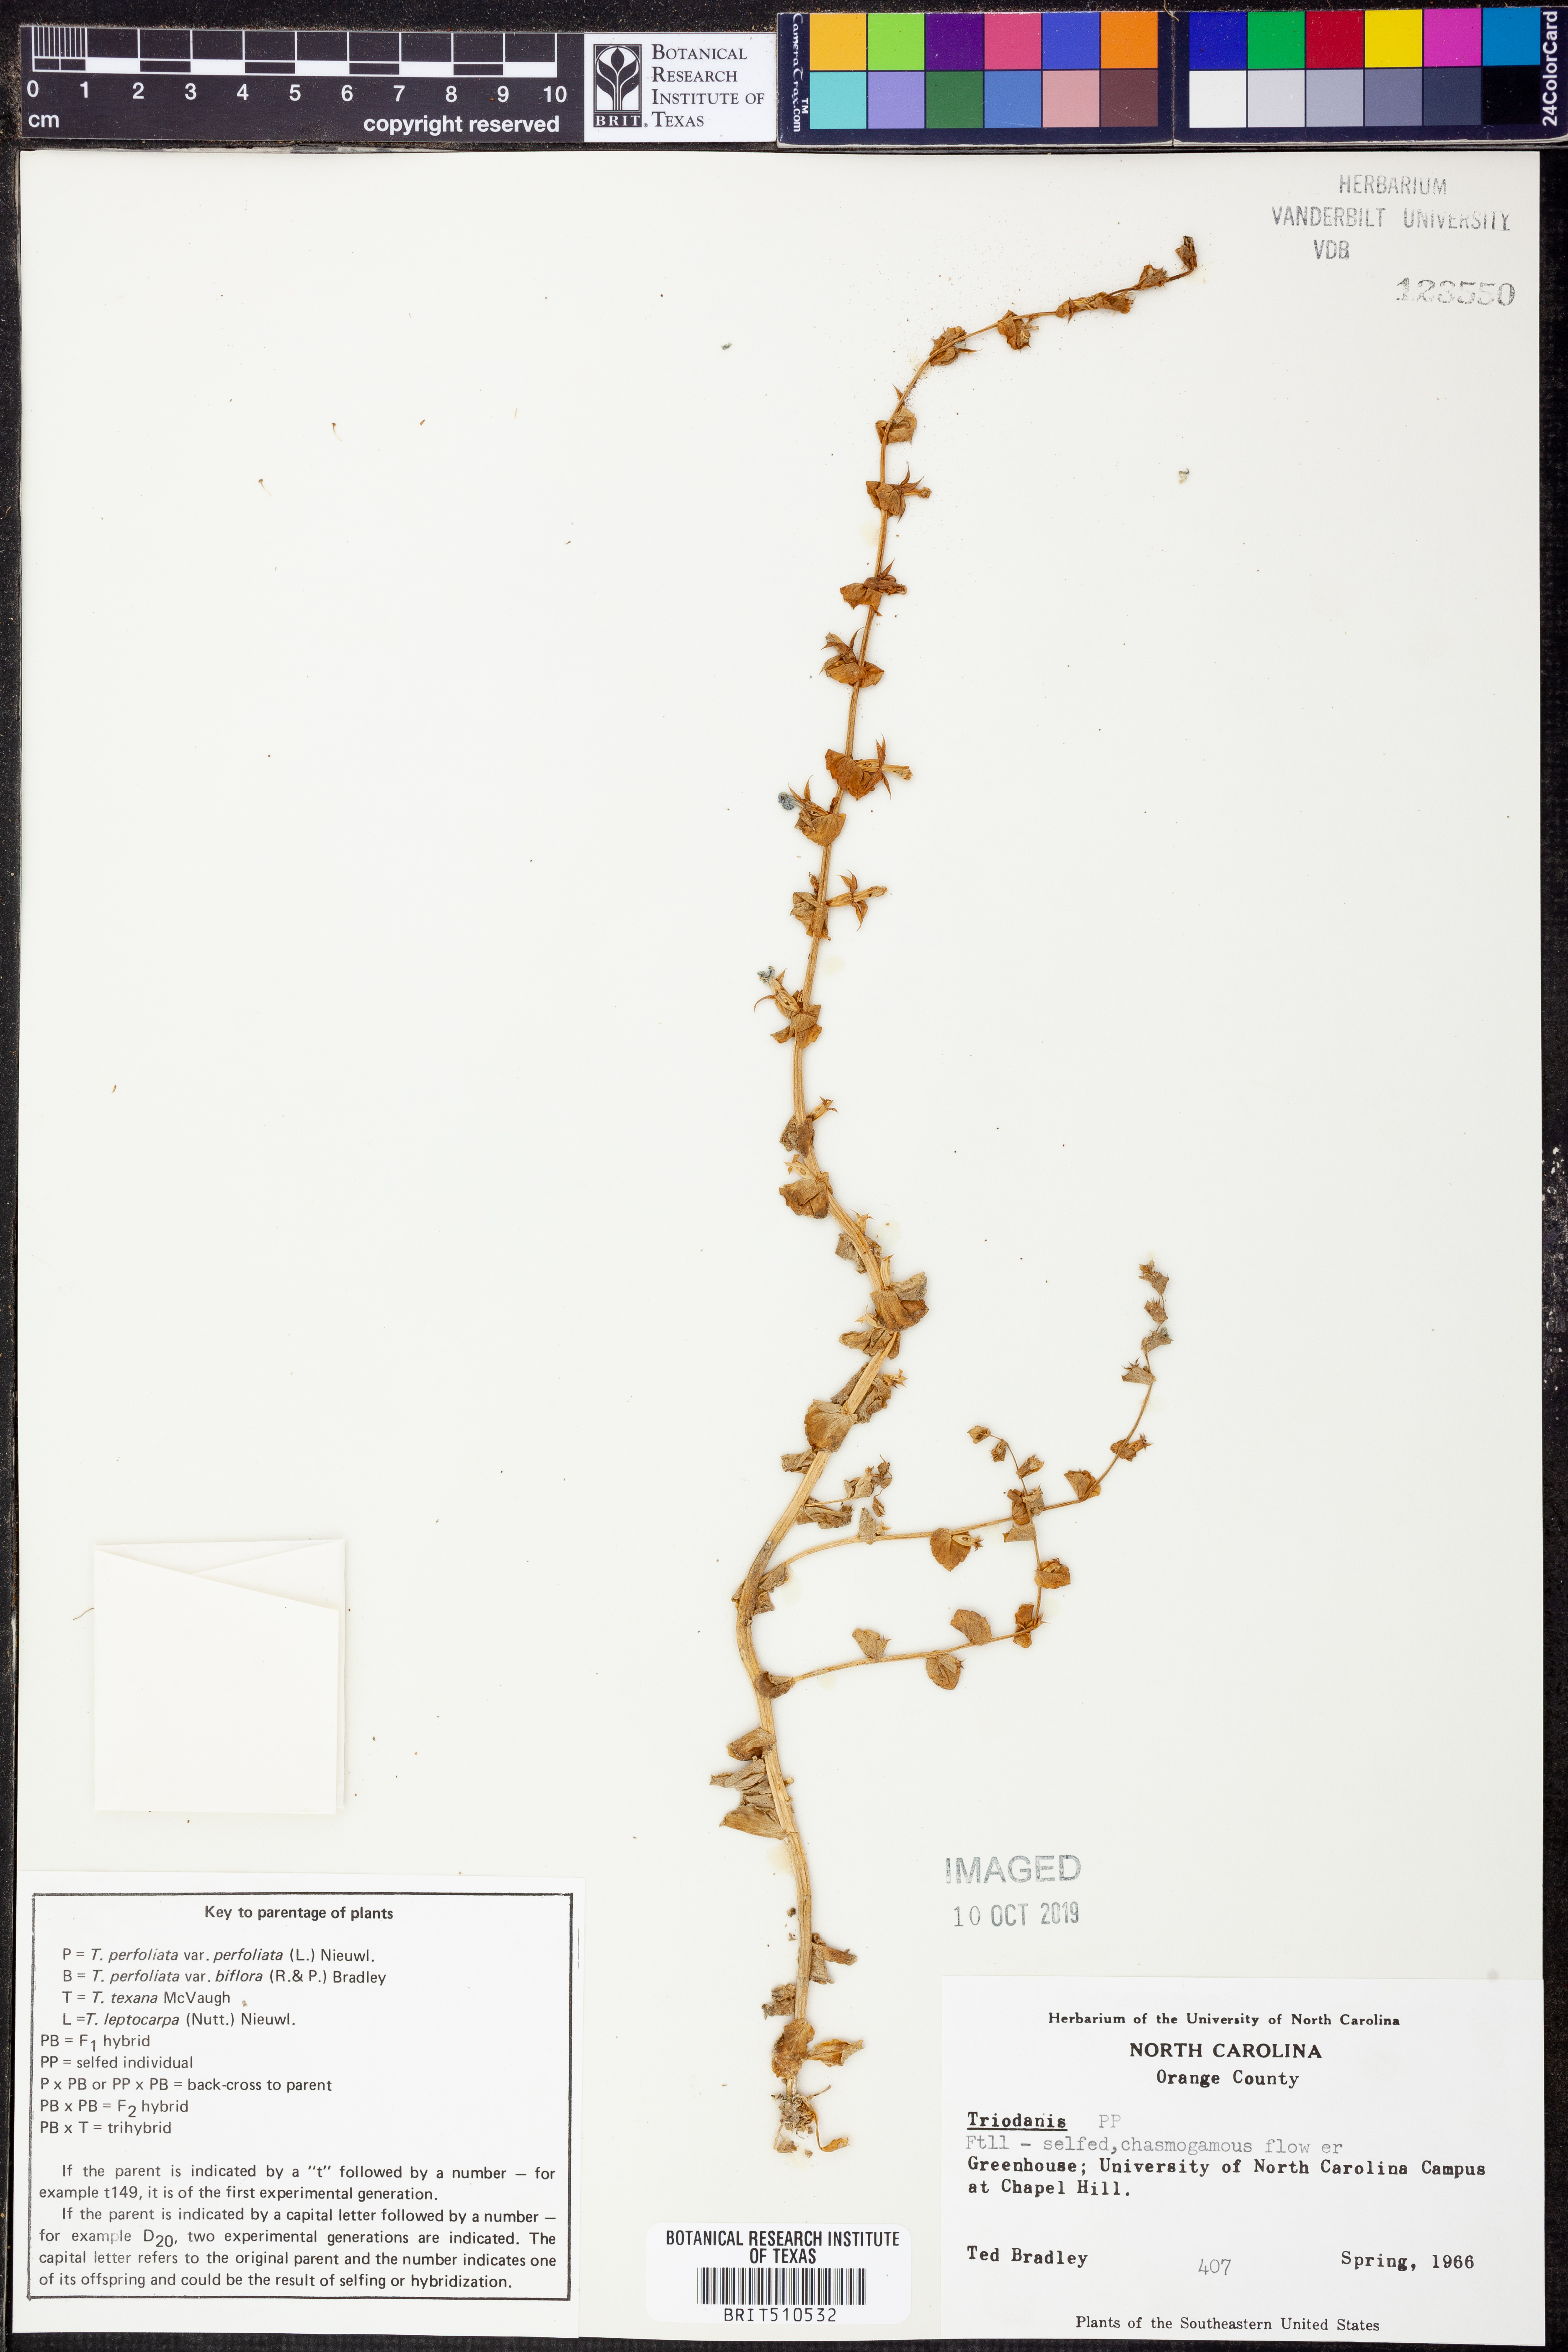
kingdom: Plantae
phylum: Tracheophyta
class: Magnoliopsida
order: Asterales
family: Campanulaceae
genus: Triodanis
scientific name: Triodanis
